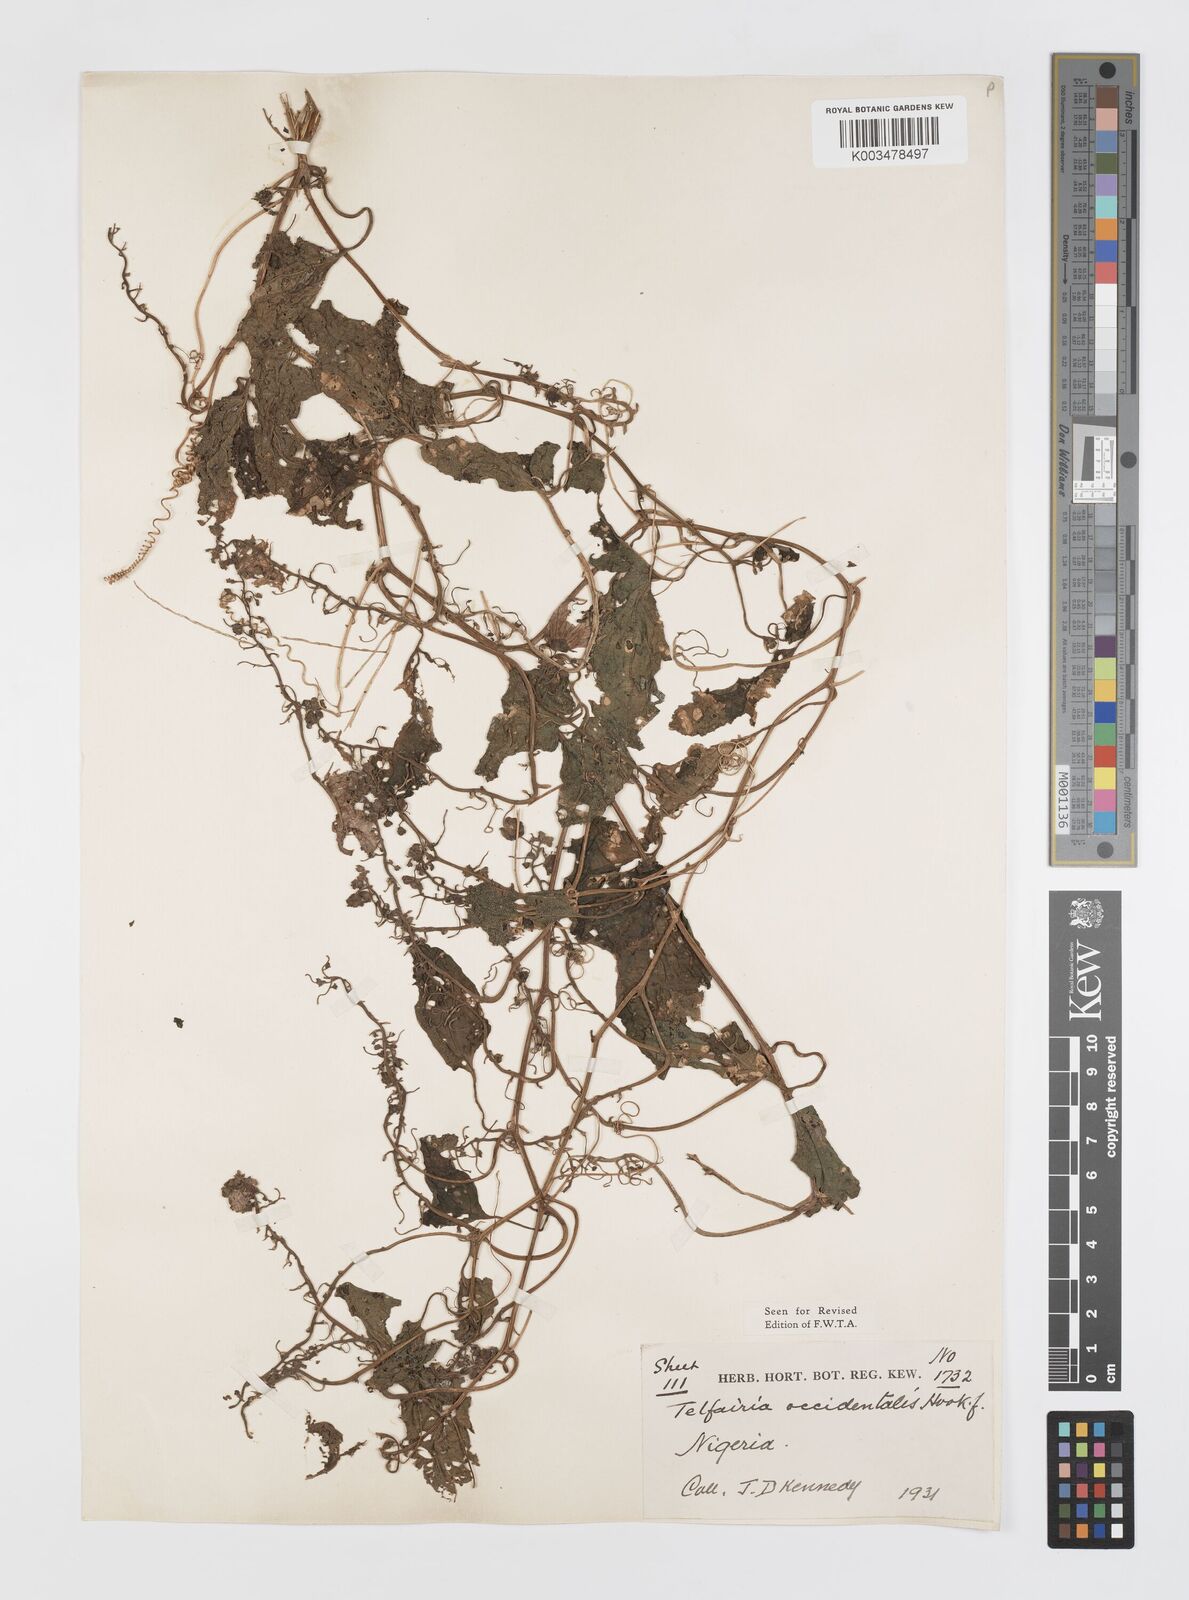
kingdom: Plantae
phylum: Tracheophyta
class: Magnoliopsida
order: Cucurbitales
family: Cucurbitaceae
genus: Telfairia
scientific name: Telfairia occidentalis
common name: Oysternut
